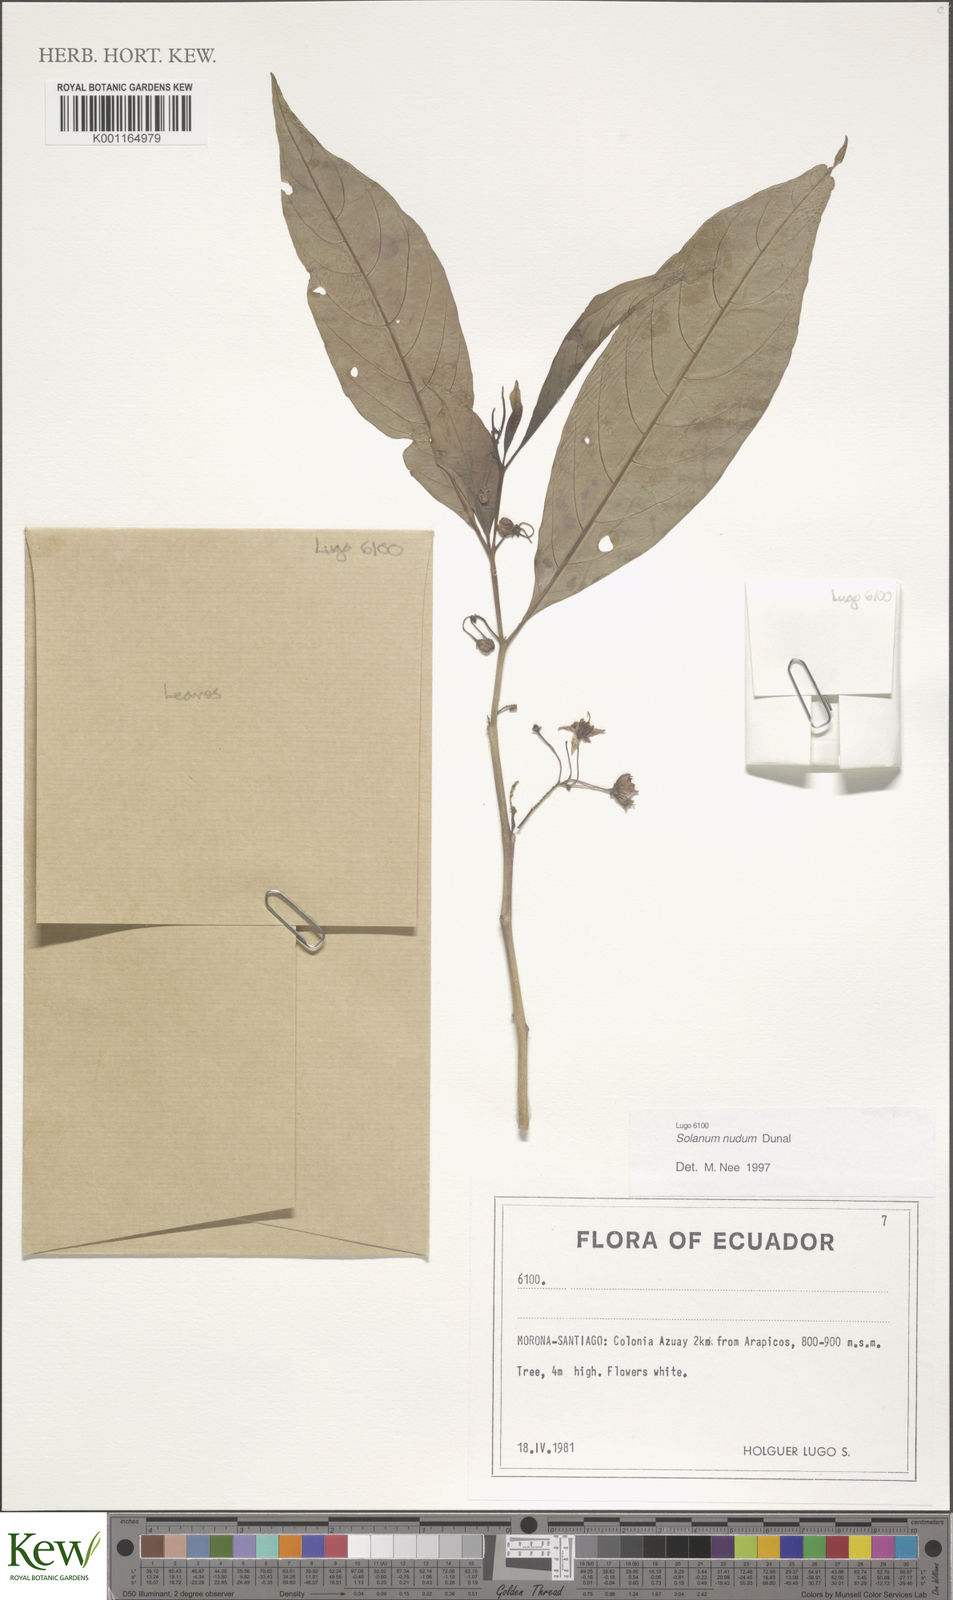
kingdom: Plantae
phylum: Tracheophyta
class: Magnoliopsida
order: Solanales
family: Solanaceae
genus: Solanum
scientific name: Solanum nudum
